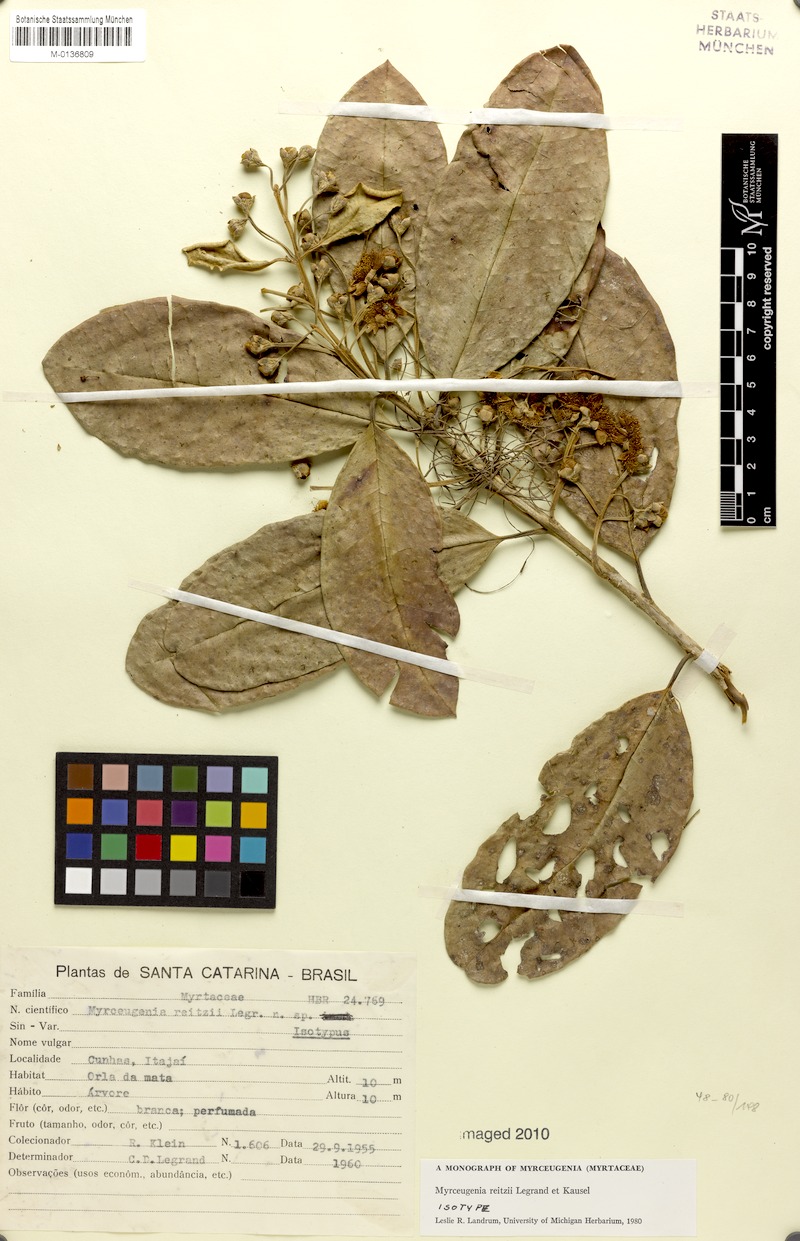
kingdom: Plantae
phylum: Tracheophyta
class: Magnoliopsida
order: Myrtales
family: Myrtaceae
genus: Myrceugenia
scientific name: Myrceugenia reitzii
